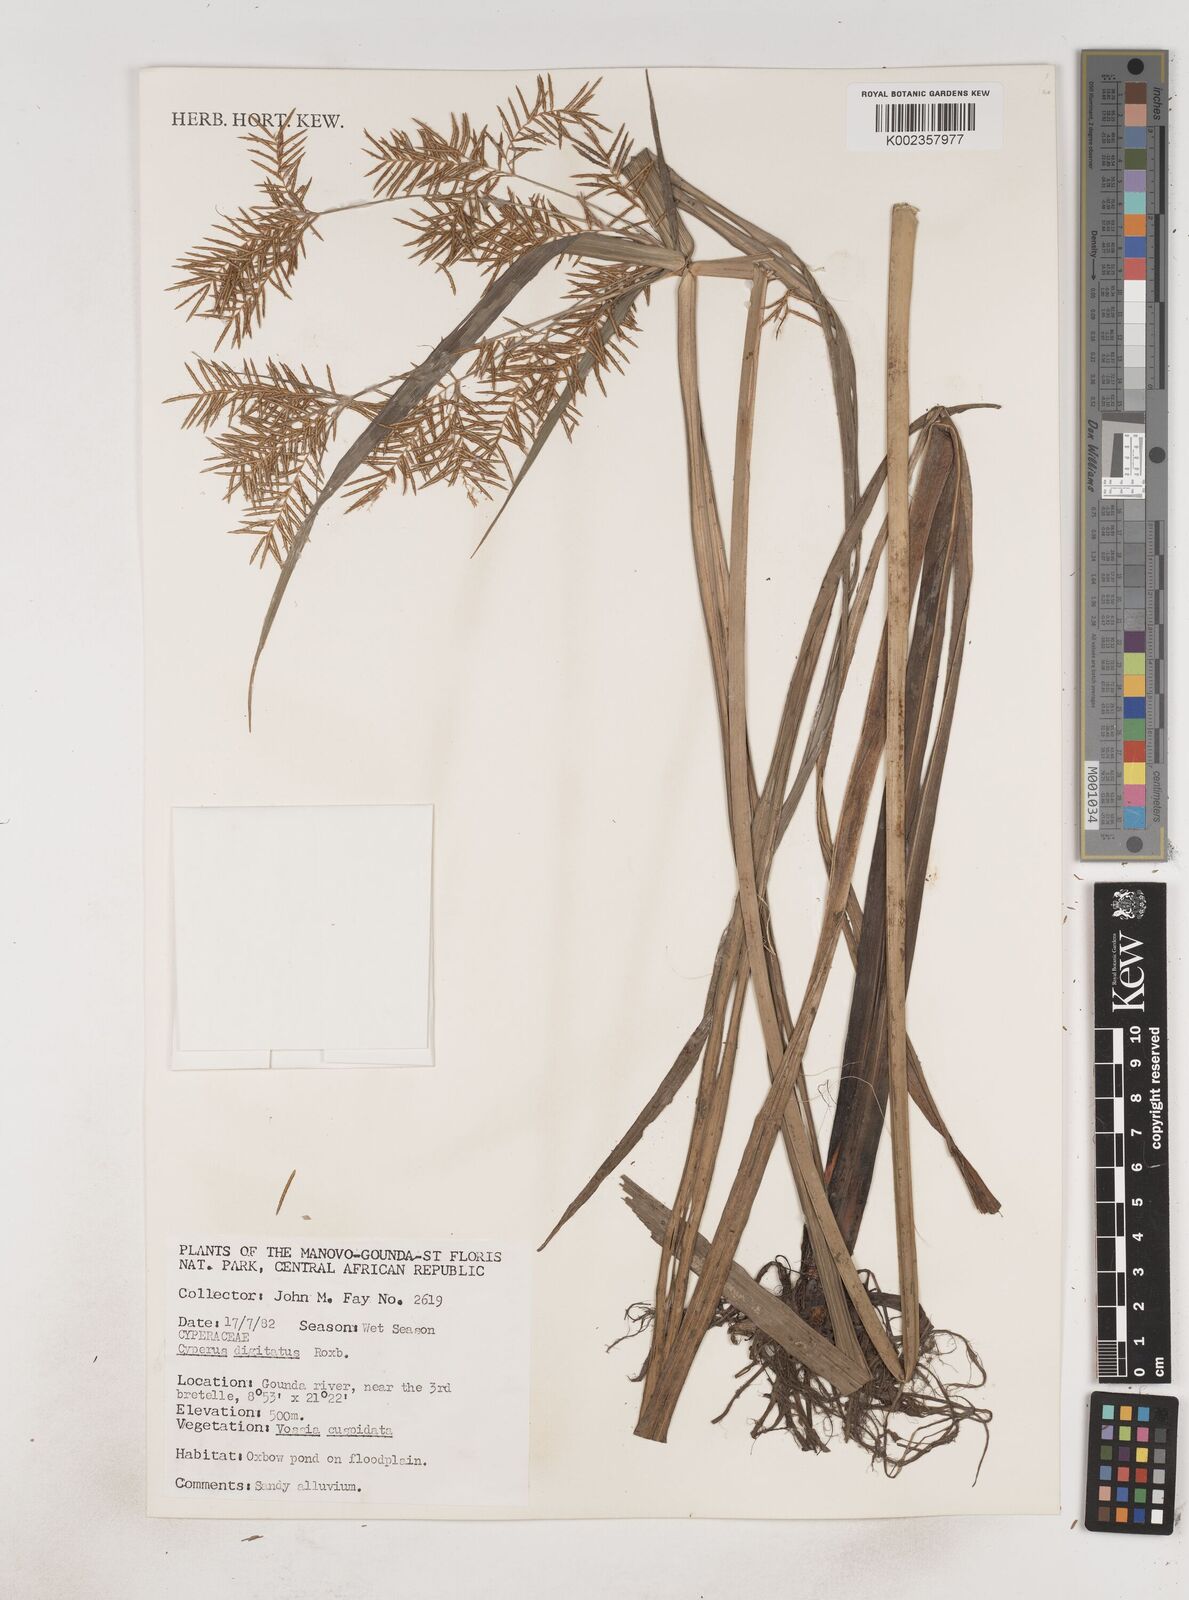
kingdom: Plantae
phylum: Tracheophyta
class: Liliopsida
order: Poales
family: Cyperaceae
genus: Cyperus
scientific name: Cyperus digitatus
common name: Finger flatsedge
